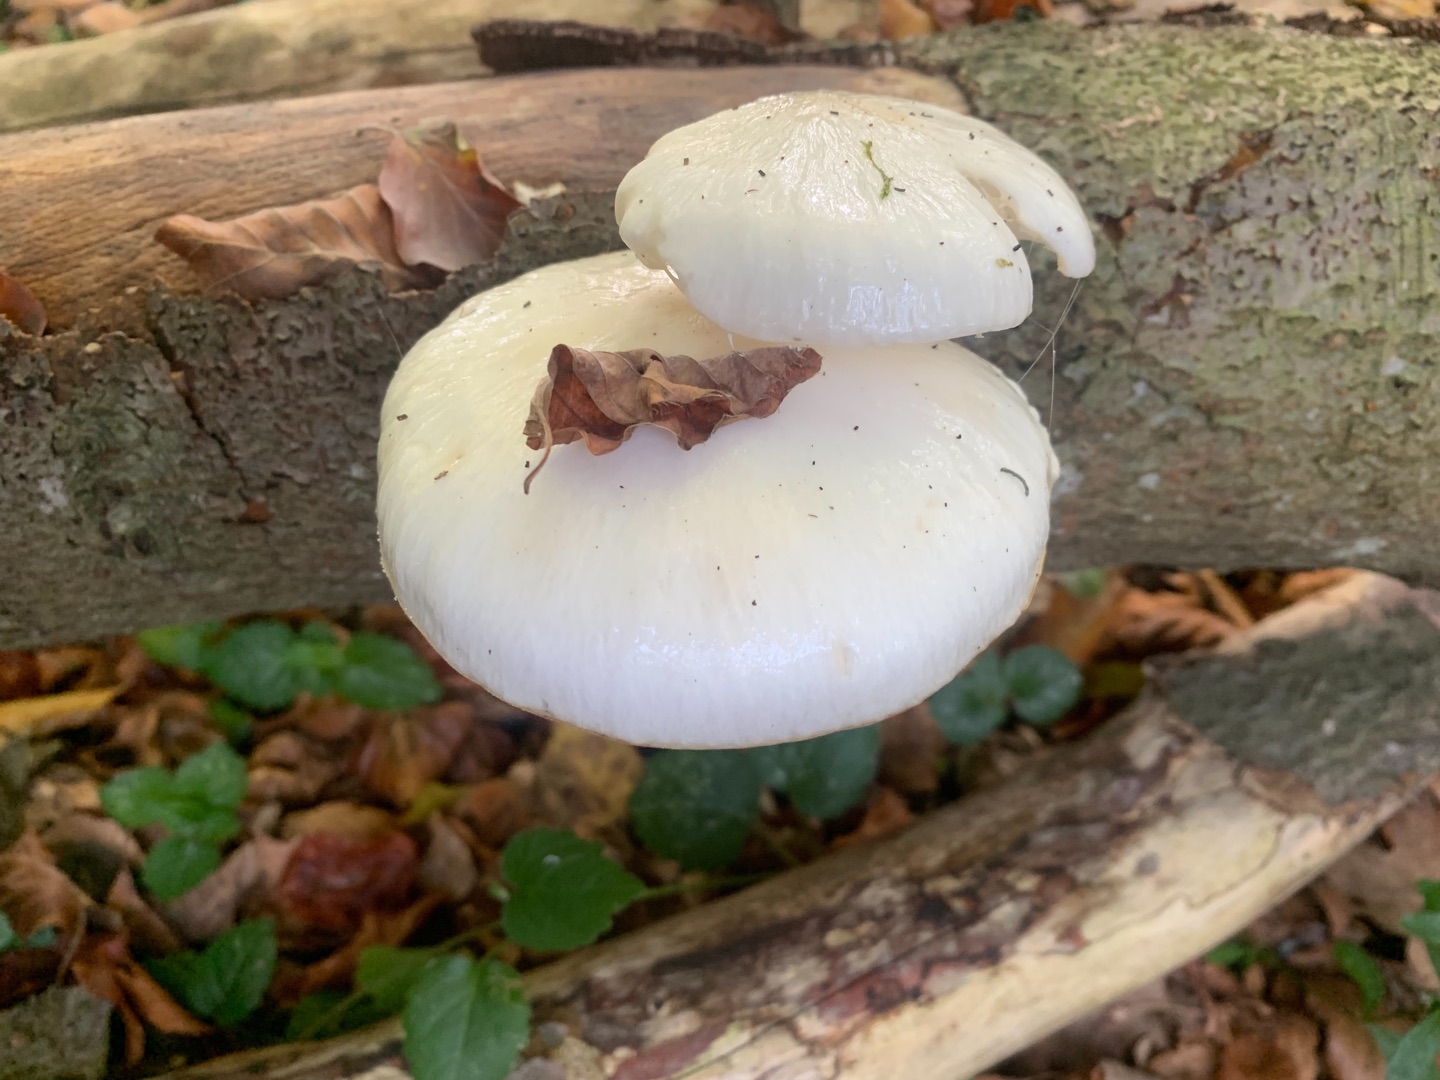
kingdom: Fungi
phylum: Basidiomycota
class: Agaricomycetes
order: Agaricales
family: Physalacriaceae
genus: Mucidula
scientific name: Mucidula mucida
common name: Porcelænshat
